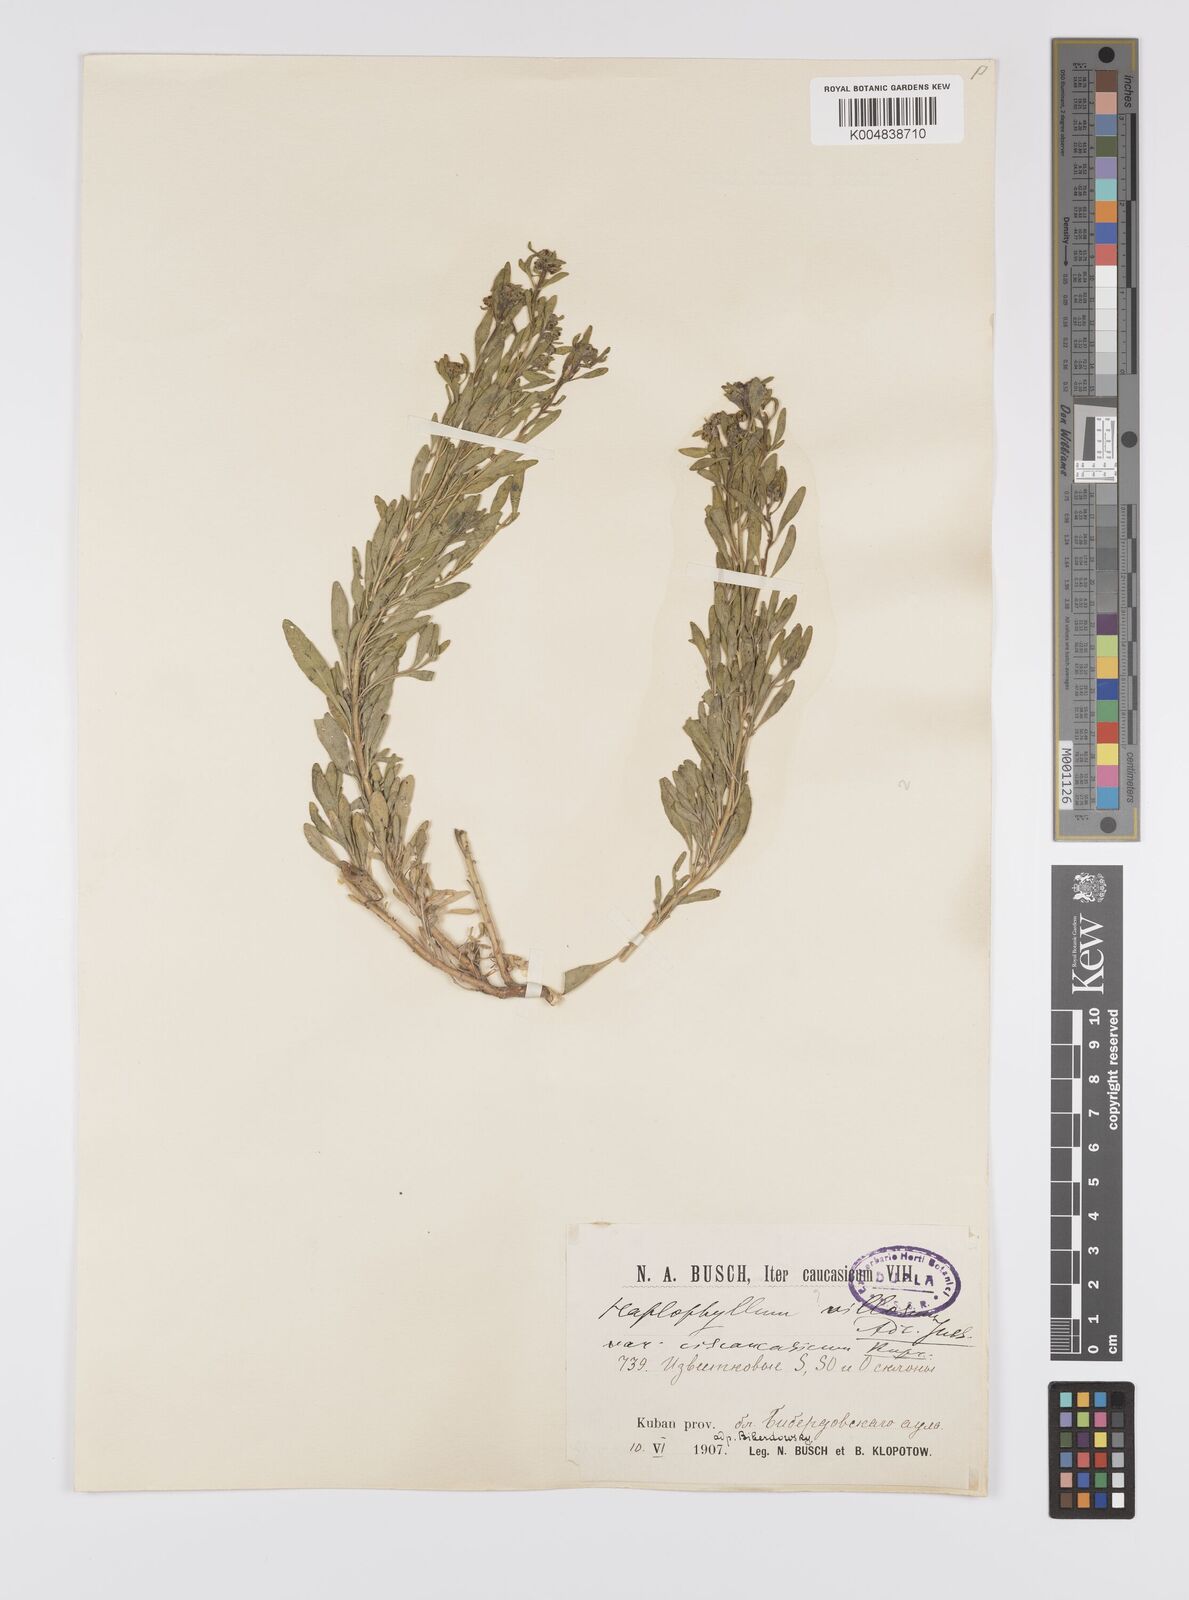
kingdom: Plantae
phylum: Tracheophyta
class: Magnoliopsida
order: Sapindales
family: Rutaceae
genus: Haplophyllum
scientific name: Haplophyllum ciscaucasicum
